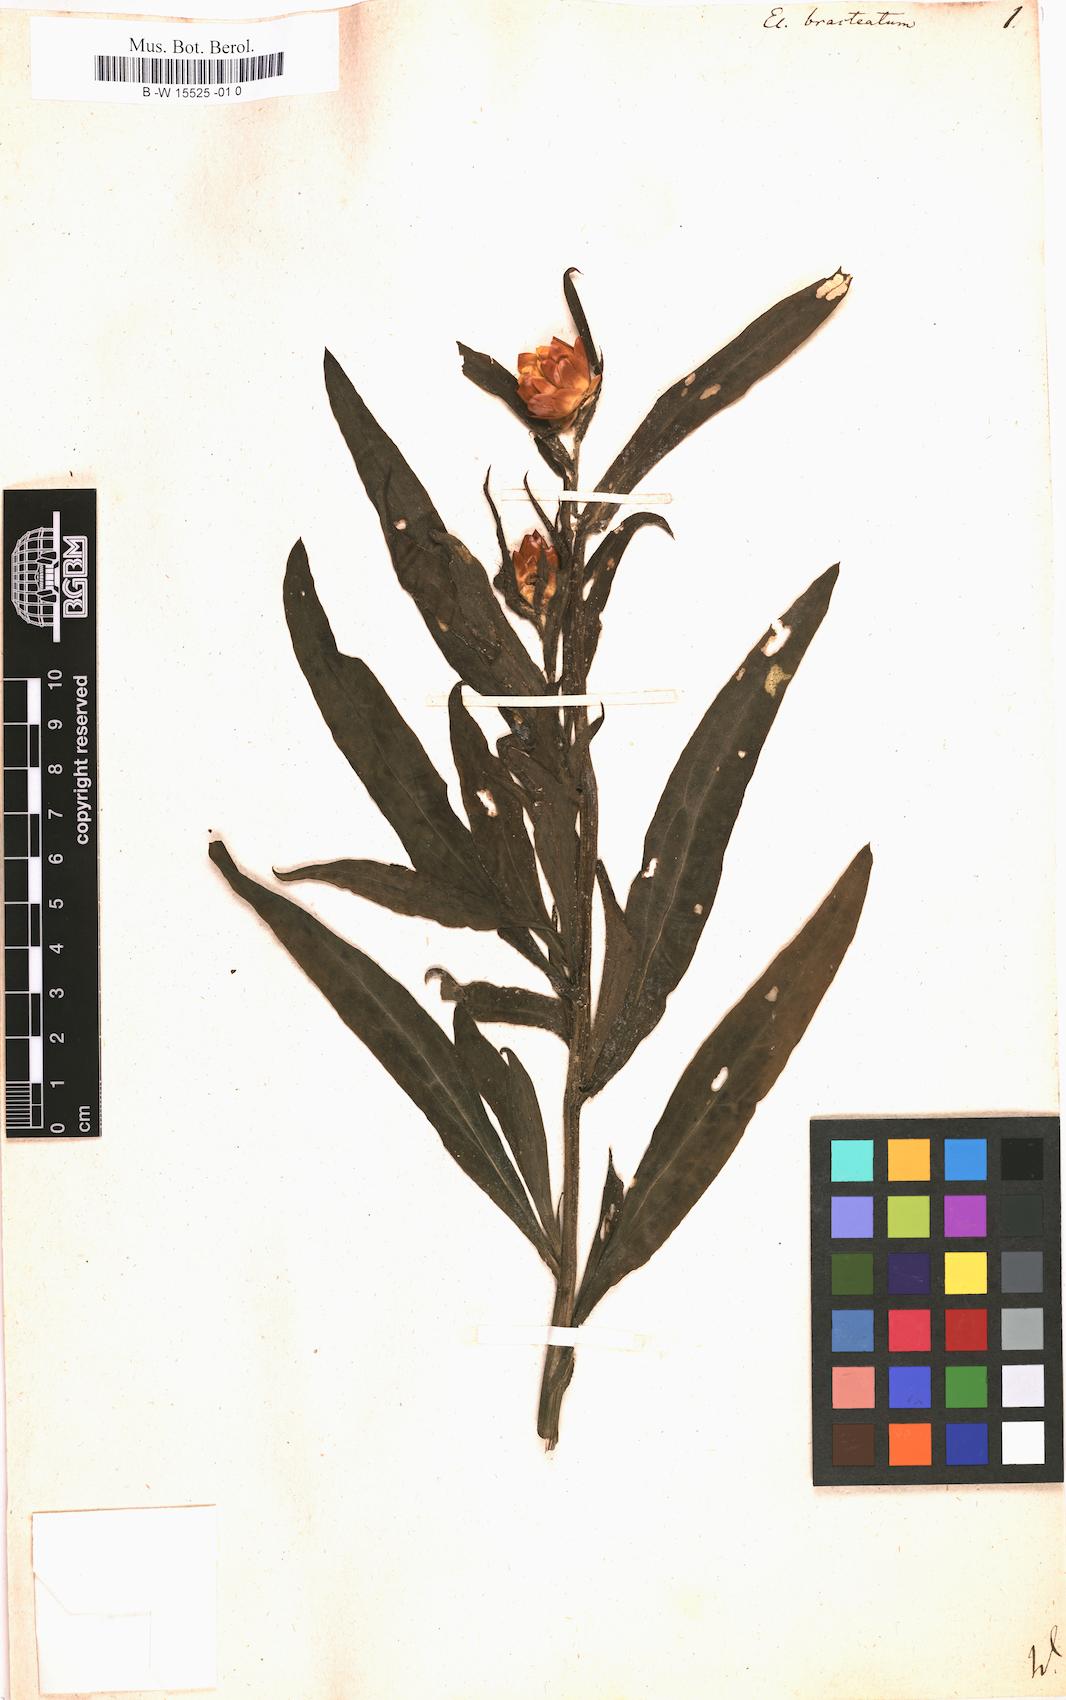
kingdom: Plantae
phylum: Tracheophyta
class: Magnoliopsida
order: Asterales
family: Asteraceae
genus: Xerochrysum
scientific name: Xerochrysum bracteatum
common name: Bracted strawflower
